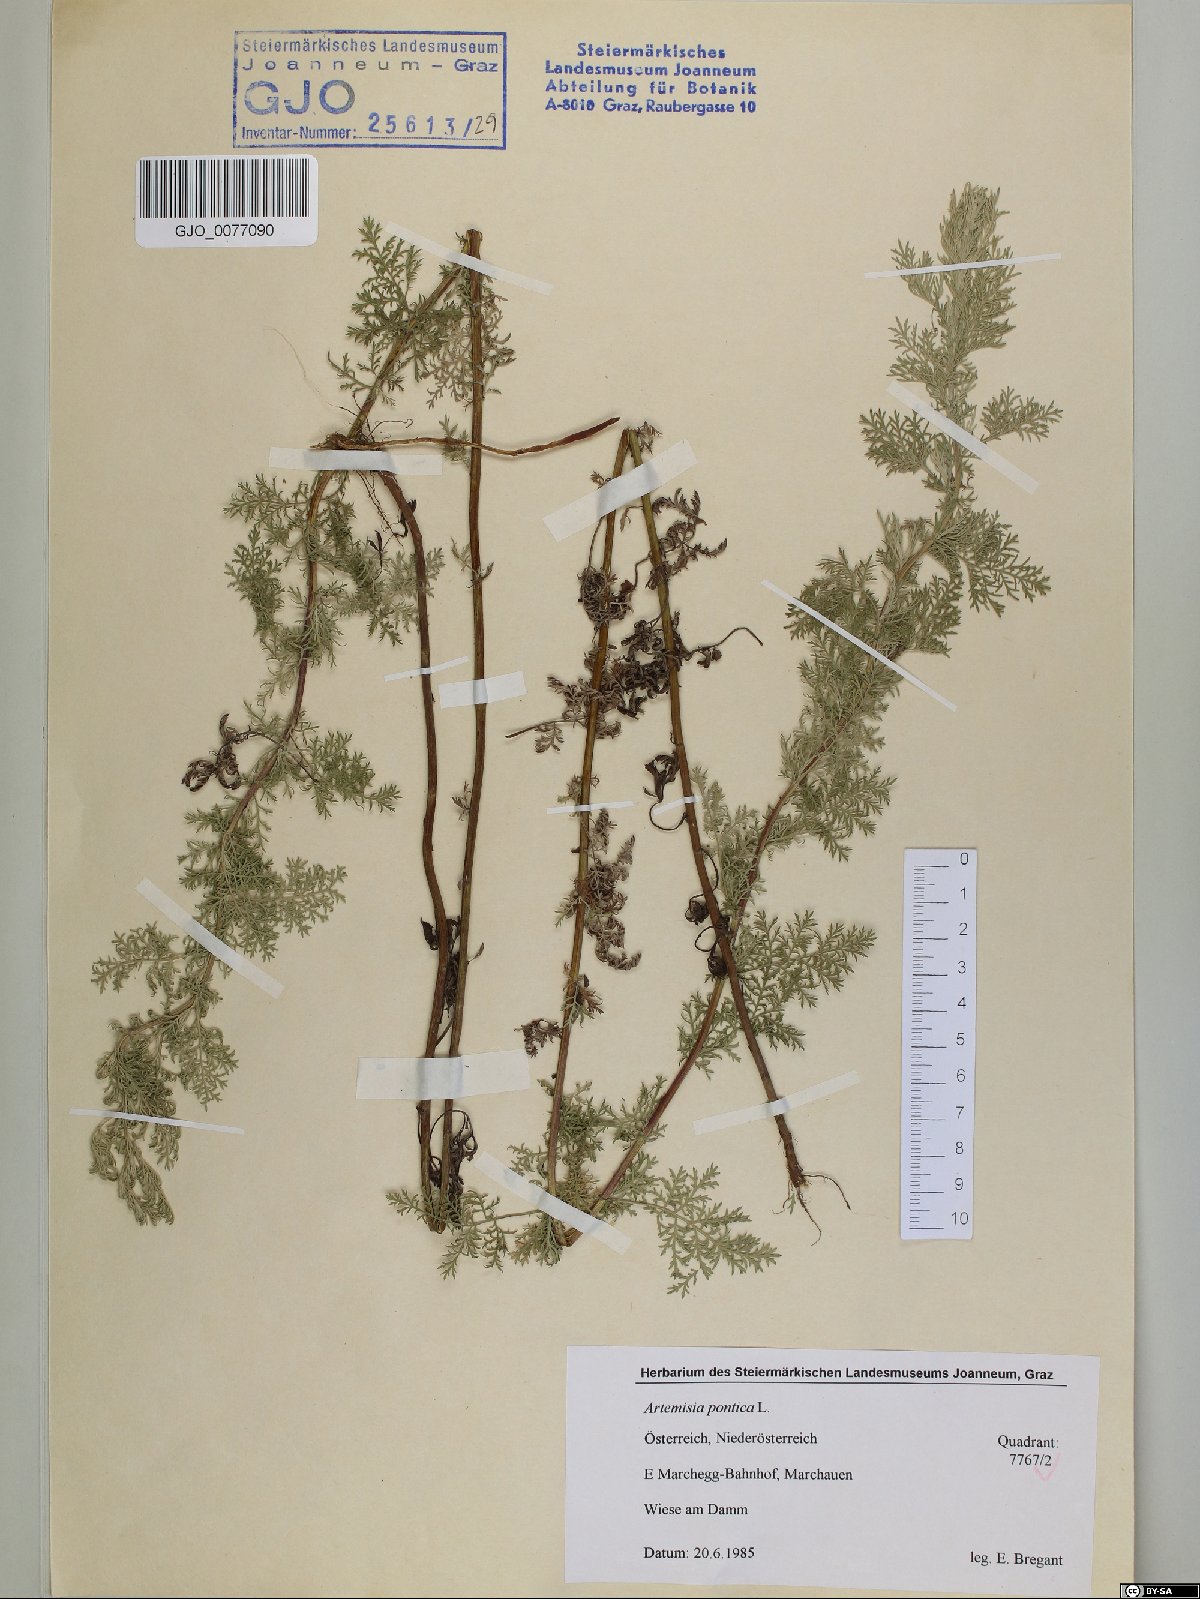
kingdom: Plantae
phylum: Tracheophyta
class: Magnoliopsida
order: Asterales
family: Asteraceae
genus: Artemisia
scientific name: Artemisia pontica
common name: Roman wormwood
